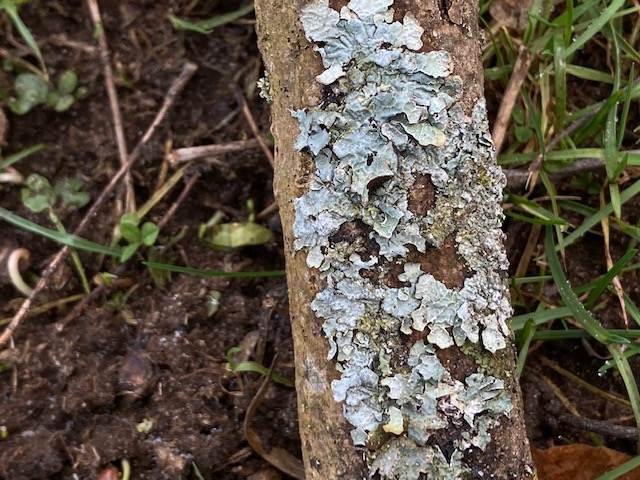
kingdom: Fungi
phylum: Ascomycota
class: Lecanoromycetes
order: Lecanorales
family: Parmeliaceae
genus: Parmelia
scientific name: Parmelia sulcata
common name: rynket skållav
